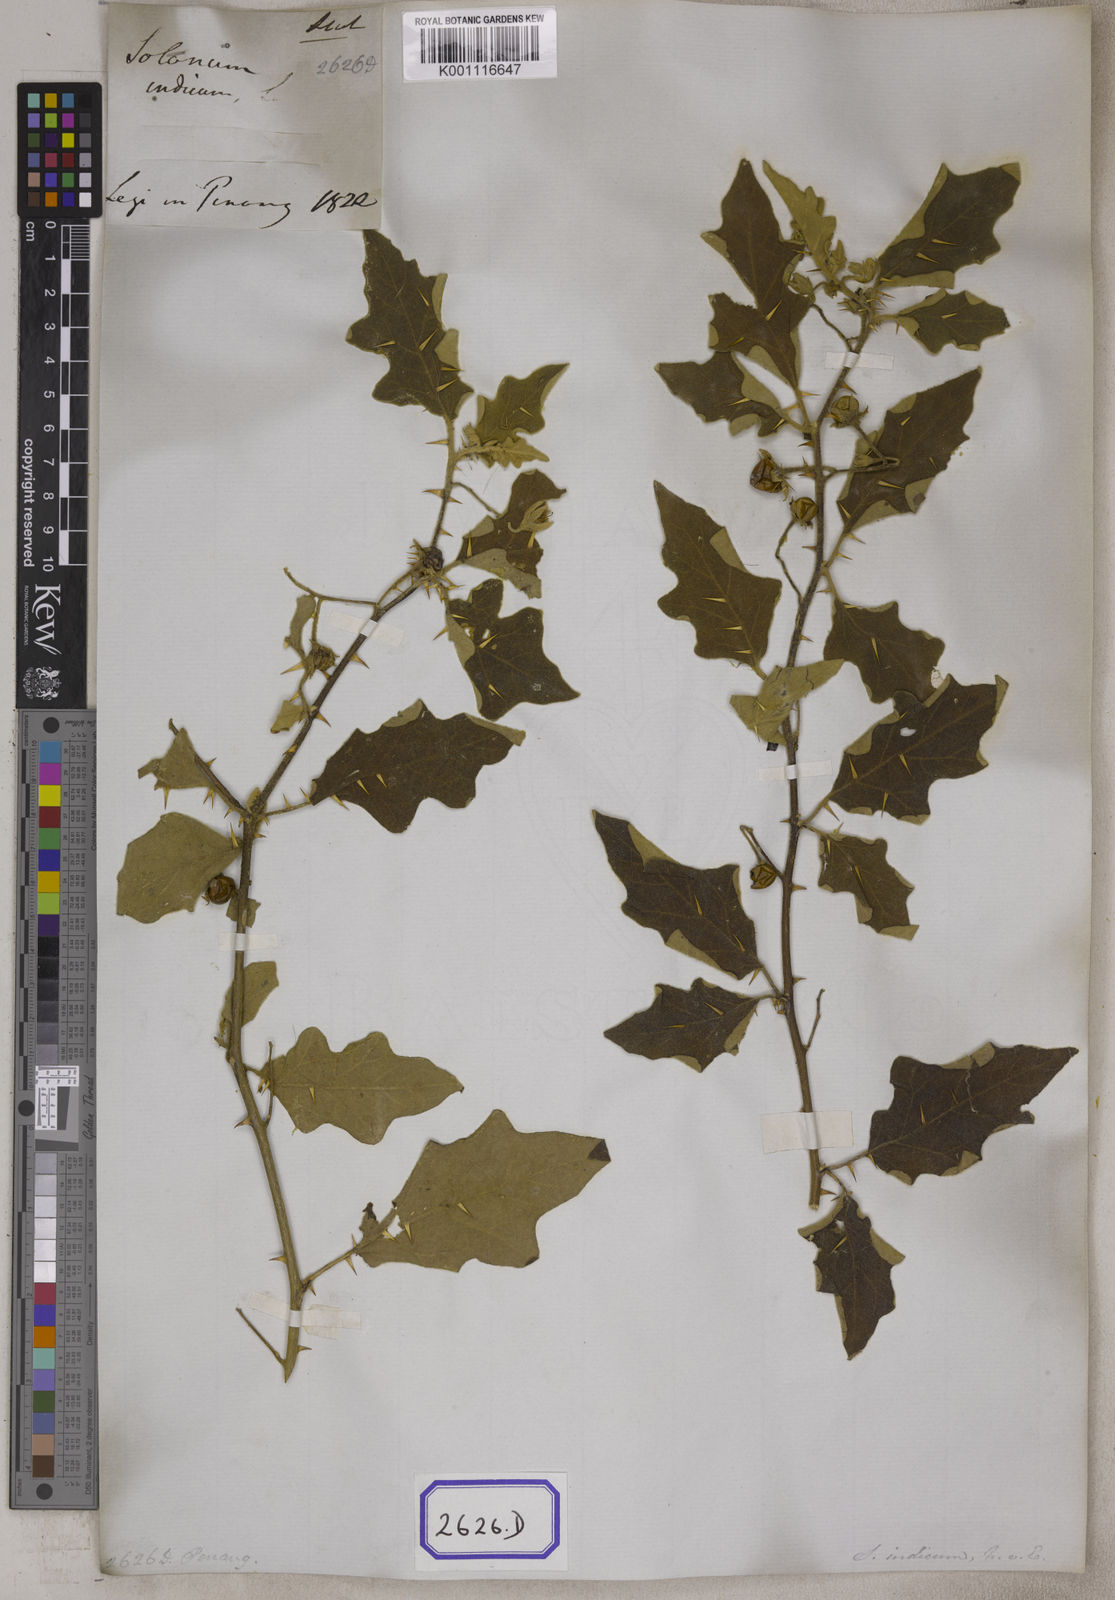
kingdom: Plantae
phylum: Tracheophyta
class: Magnoliopsida
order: Solanales
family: Solanaceae
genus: Solanum
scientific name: Solanum violaceum
